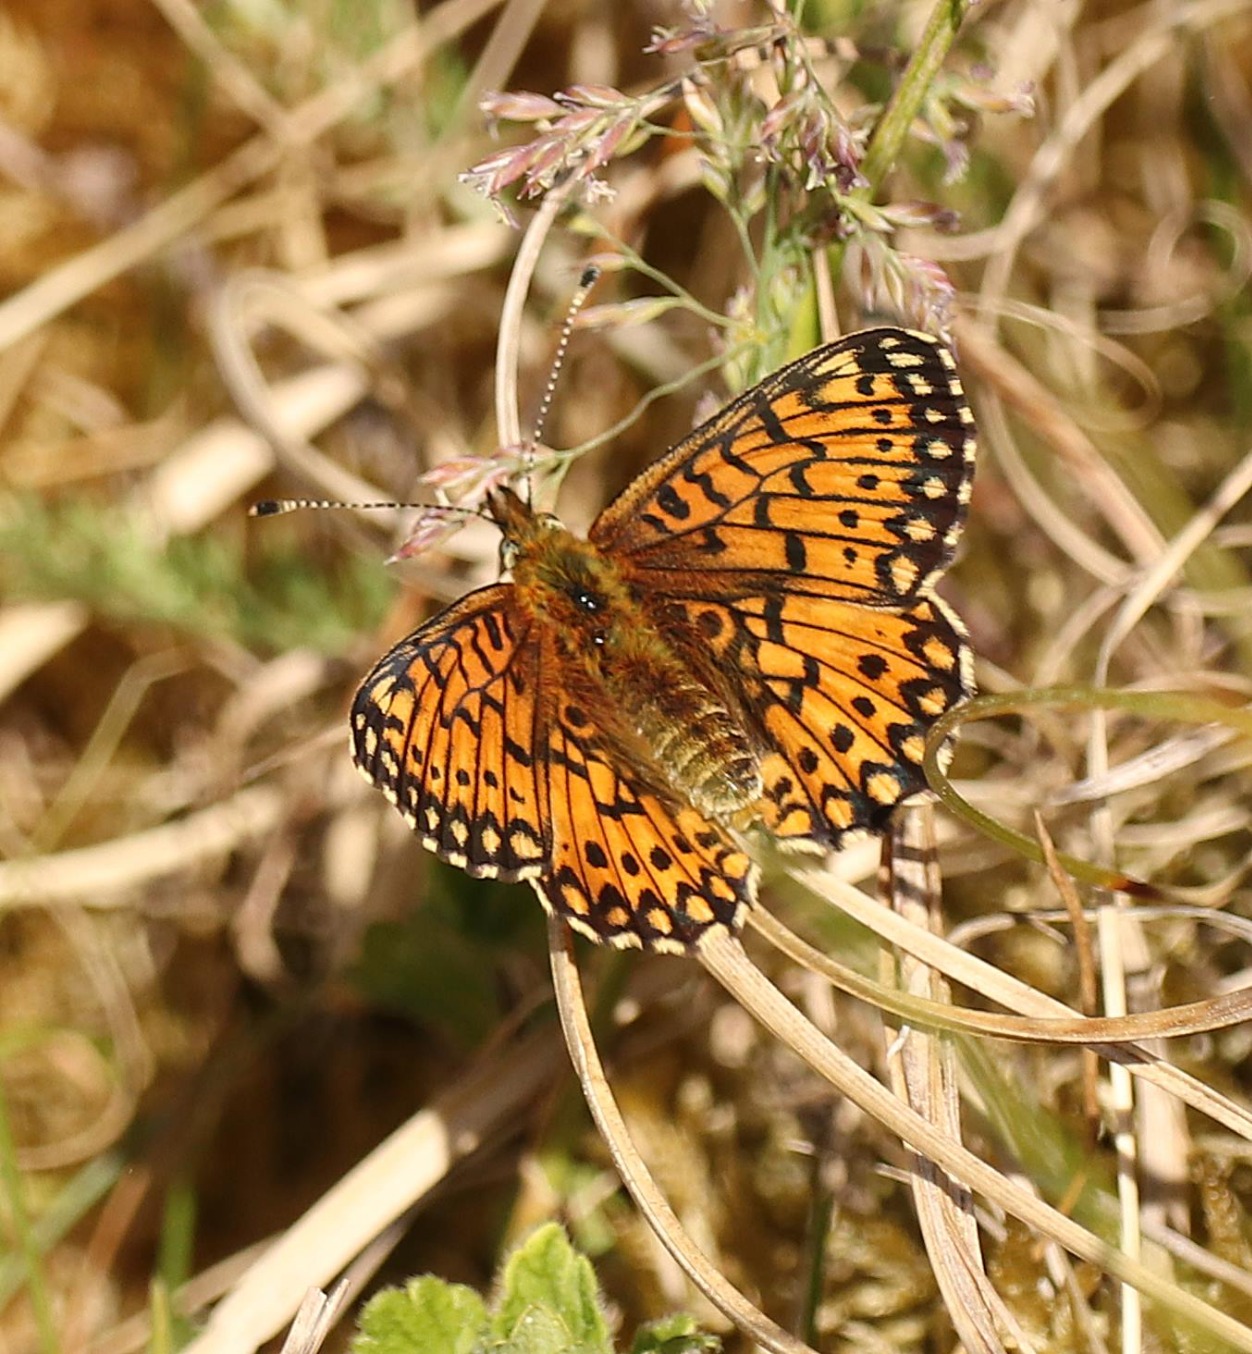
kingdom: Animalia
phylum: Arthropoda
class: Insecta
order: Lepidoptera
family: Nymphalidae
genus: Boloria
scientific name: Boloria selene
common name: Brunlig perlemorsommerfugl
